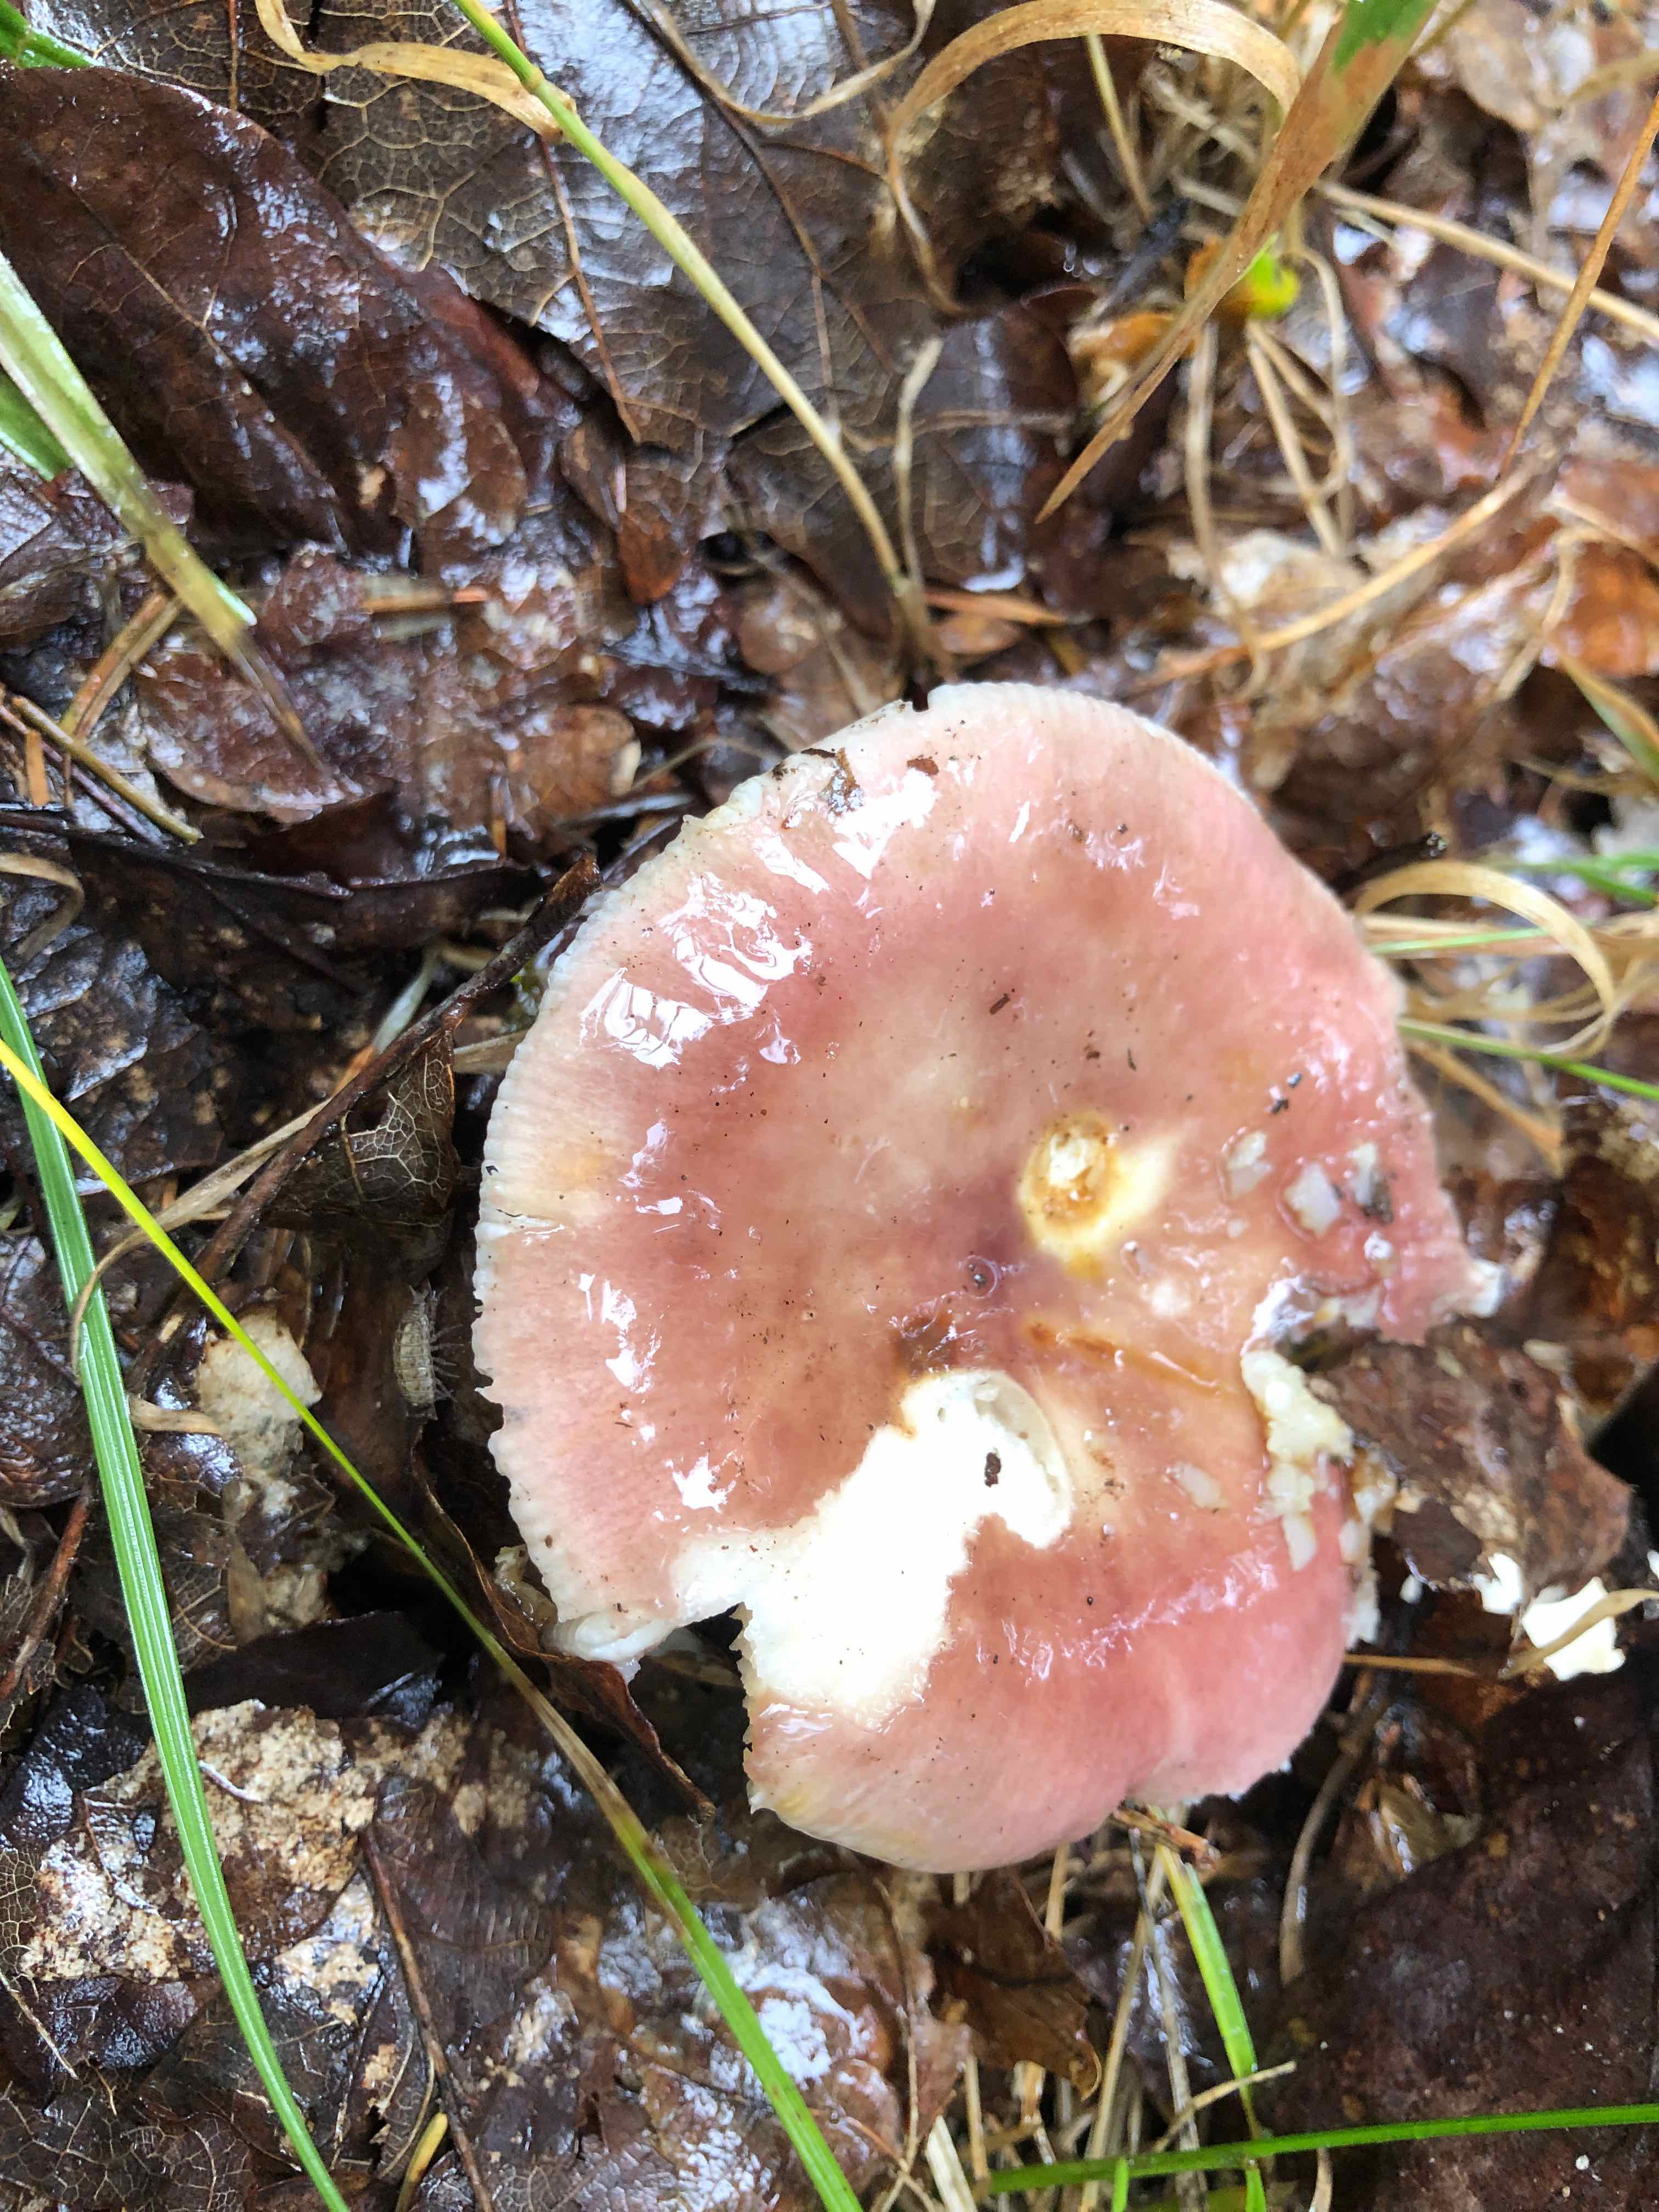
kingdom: Fungi
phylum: Basidiomycota
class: Agaricomycetes
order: Russulales
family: Russulaceae
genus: Russula
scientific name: Russula vesca
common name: spiselig skørhat
